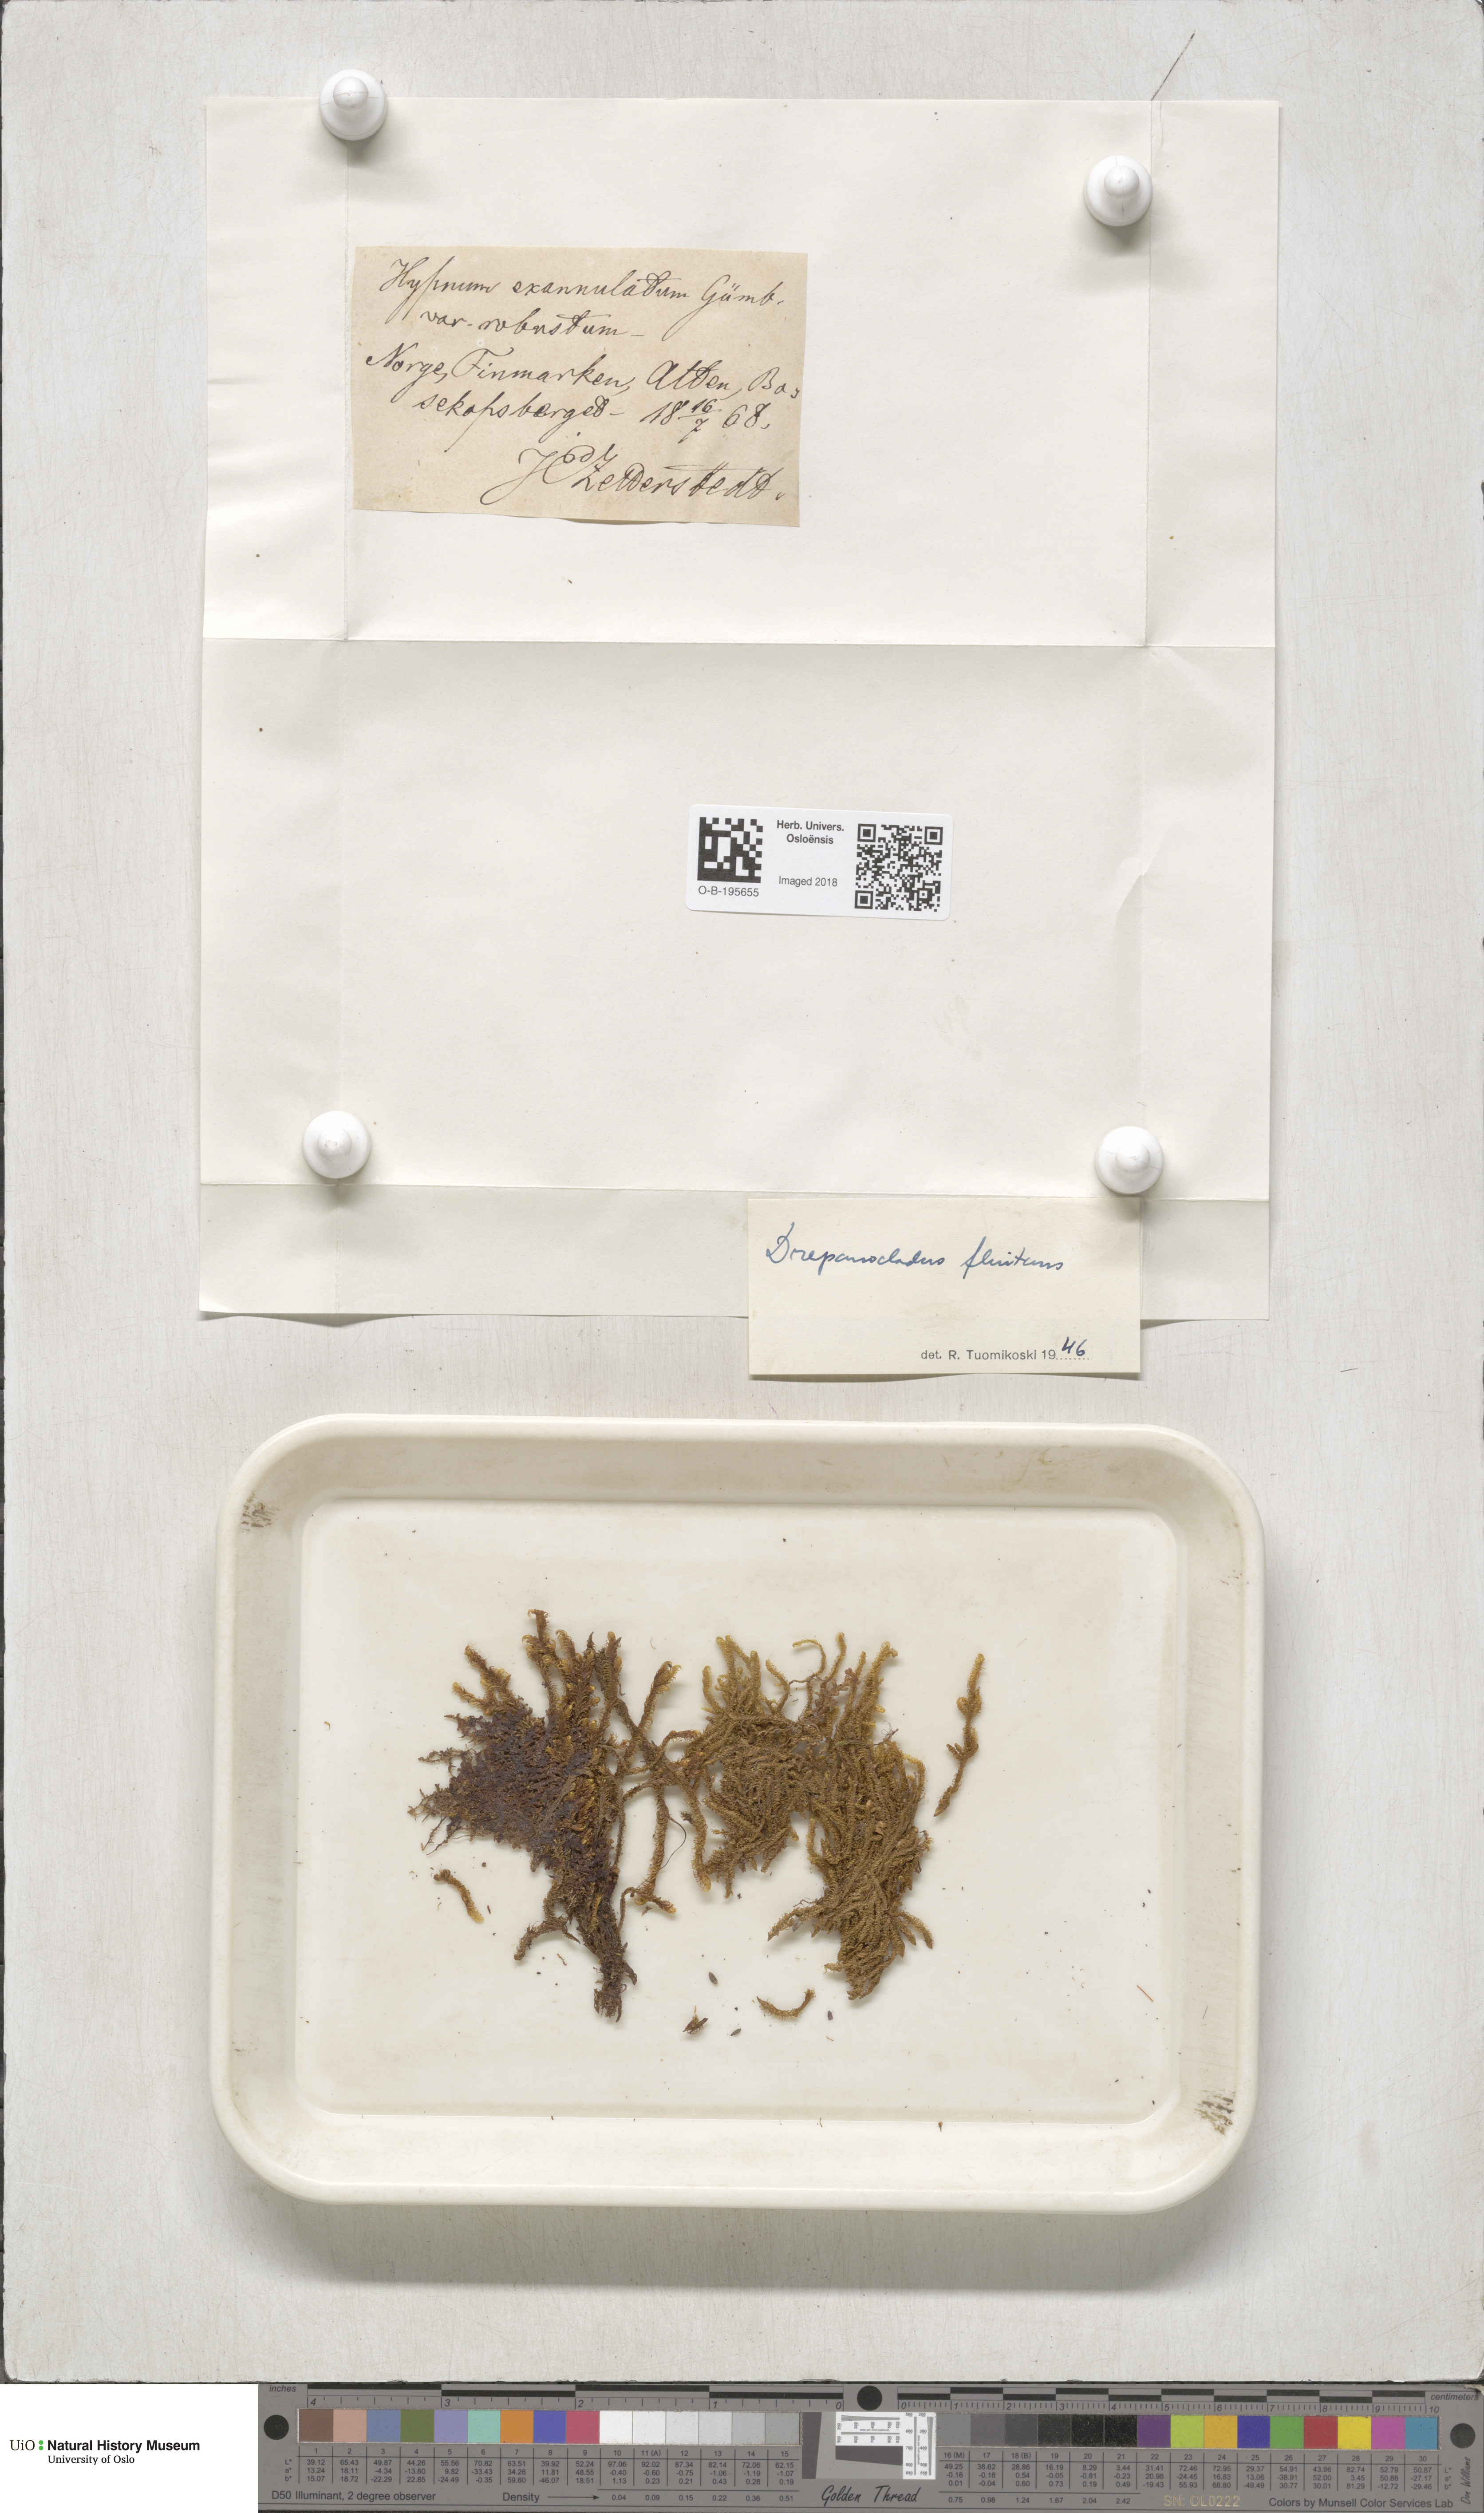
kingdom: Plantae
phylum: Bryophyta
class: Bryopsida
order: Hypnales
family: Calliergonaceae
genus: Warnstorfia
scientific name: Warnstorfia fluitans
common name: Floating hook moss
